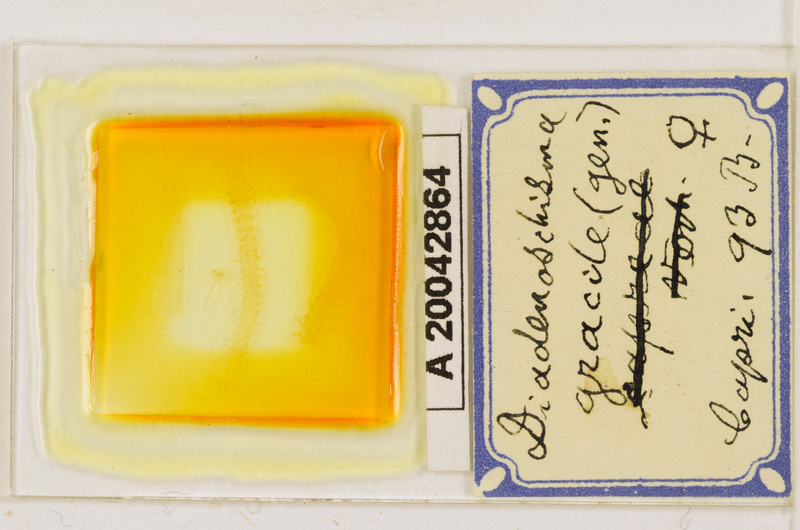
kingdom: Animalia
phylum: Arthropoda
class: Chilopoda
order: Geophilomorpha
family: Himantariidae
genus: Stigmatogaster
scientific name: Stigmatogaster
